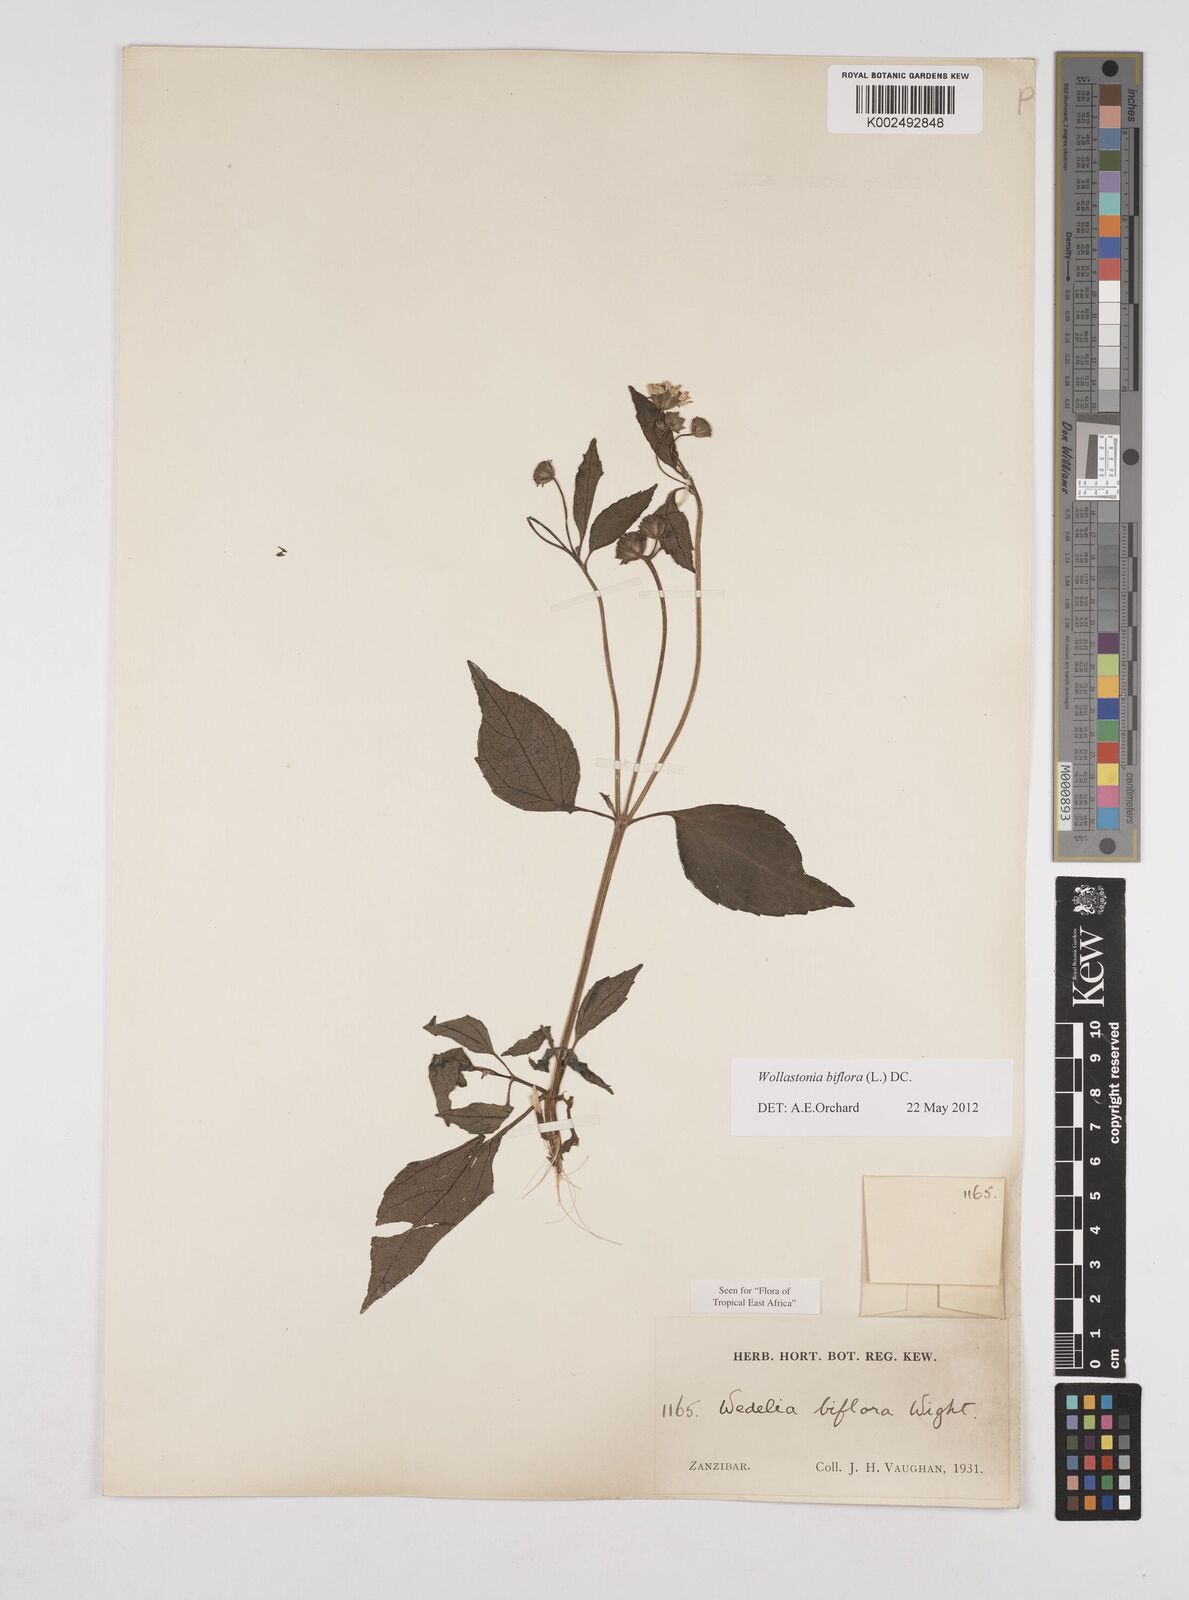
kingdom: Plantae
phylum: Tracheophyta
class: Magnoliopsida
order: Asterales
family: Asteraceae
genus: Wollastonia
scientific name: Wollastonia biflora
